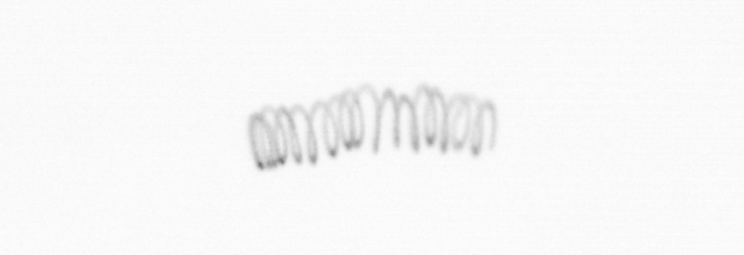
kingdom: Chromista
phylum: Ochrophyta
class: Bacillariophyceae
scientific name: Bacillariophyceae
